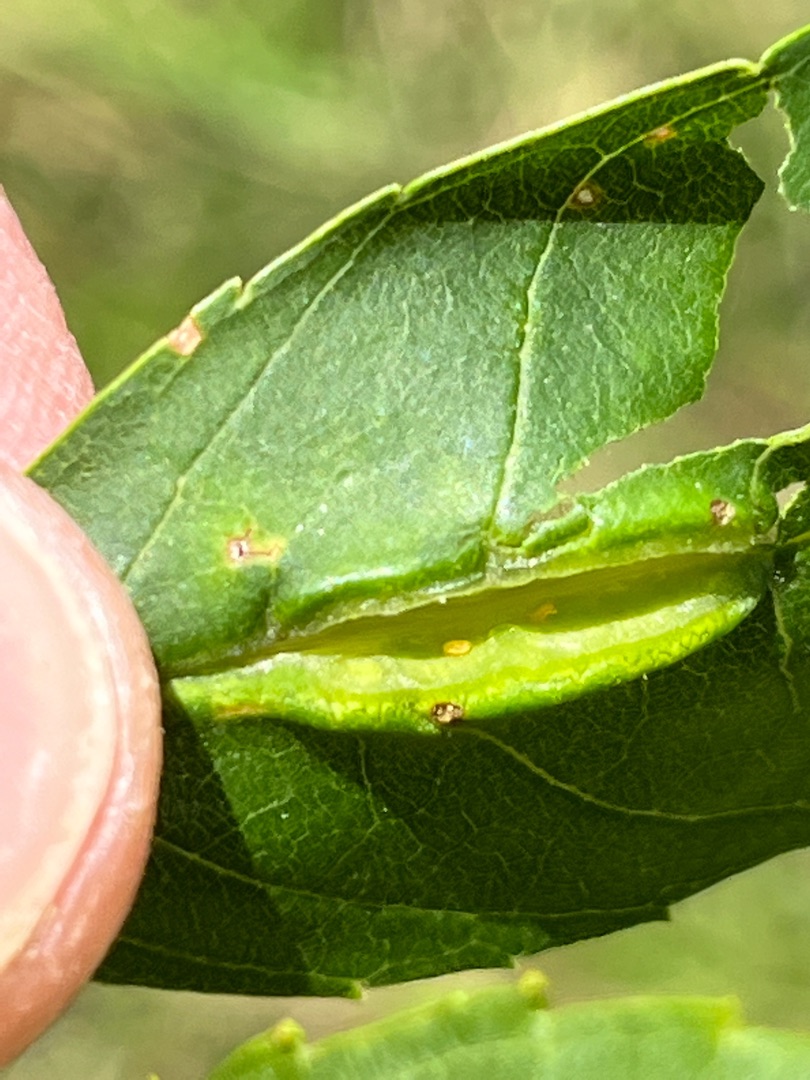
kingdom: Animalia
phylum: Arthropoda
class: Insecta
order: Diptera
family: Cecidomyiidae
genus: Dasineura
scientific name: Dasineura fraxini
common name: Orange askebladgalmyg
